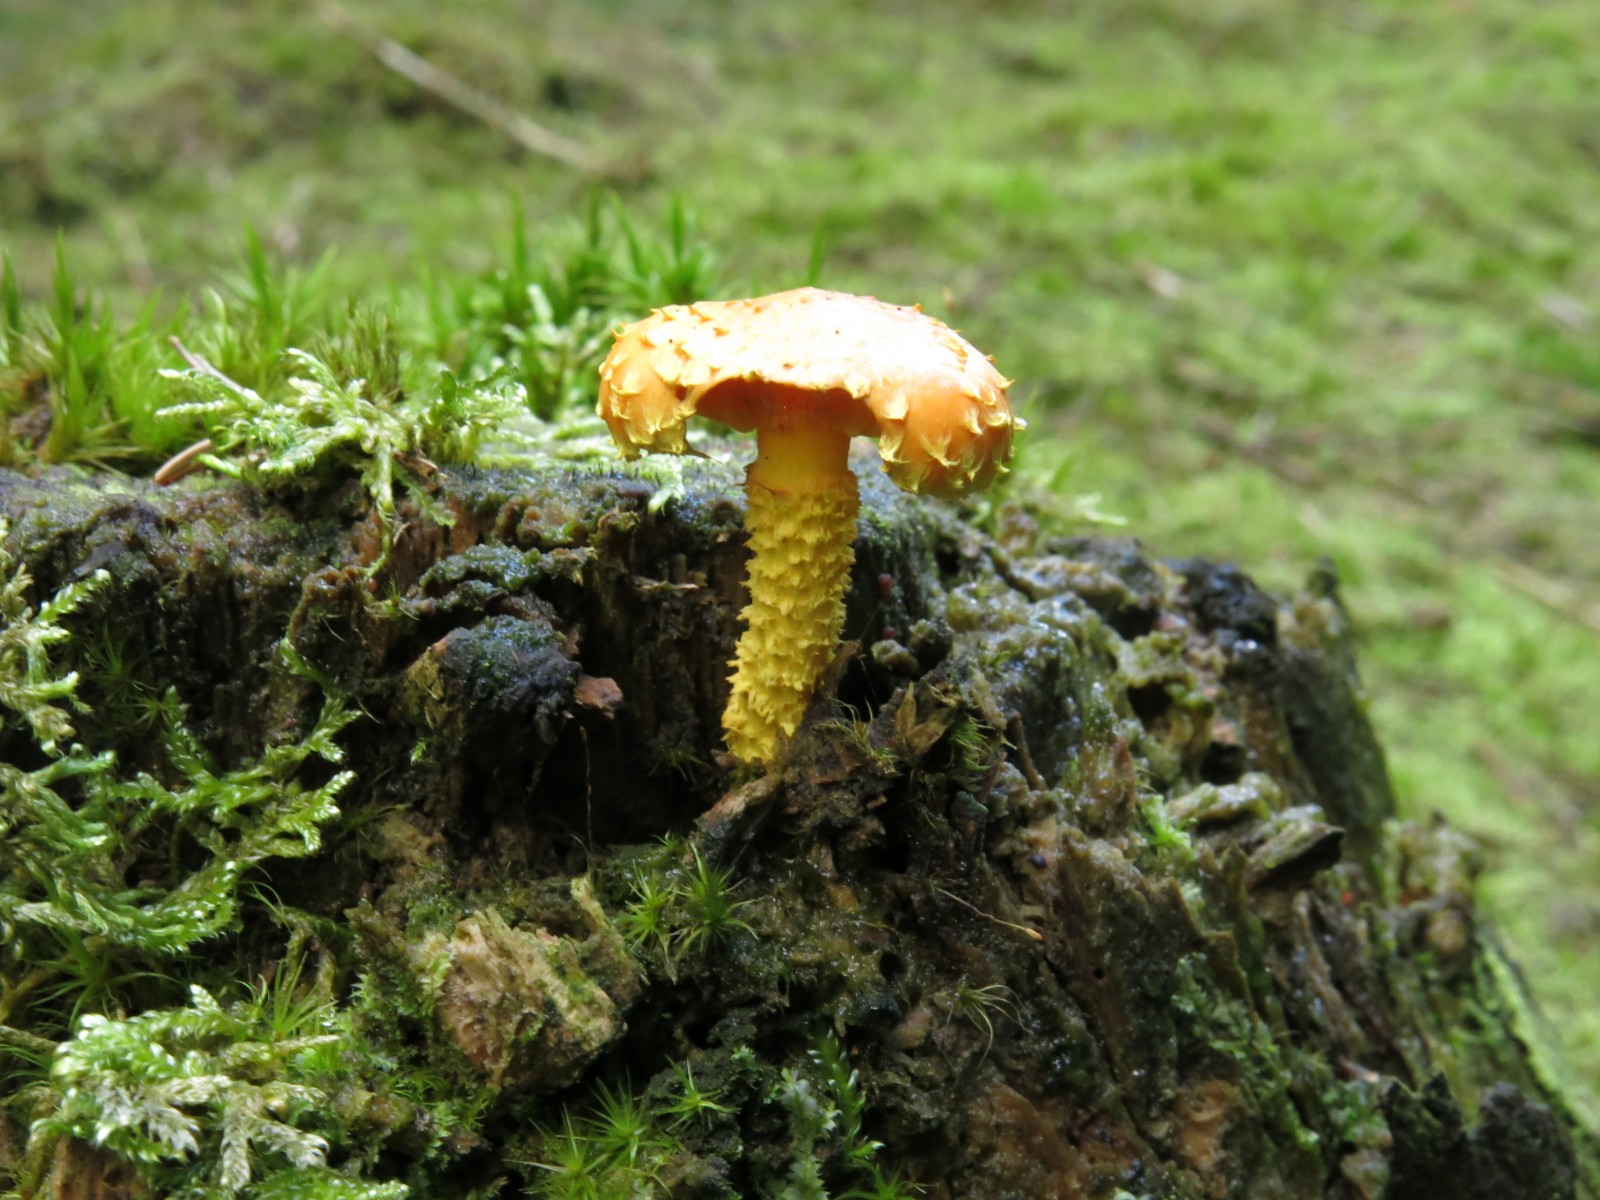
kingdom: Fungi
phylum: Basidiomycota
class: Agaricomycetes
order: Agaricales
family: Strophariaceae
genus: Pholiota
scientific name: Pholiota flammans
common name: flamme-skælhat
